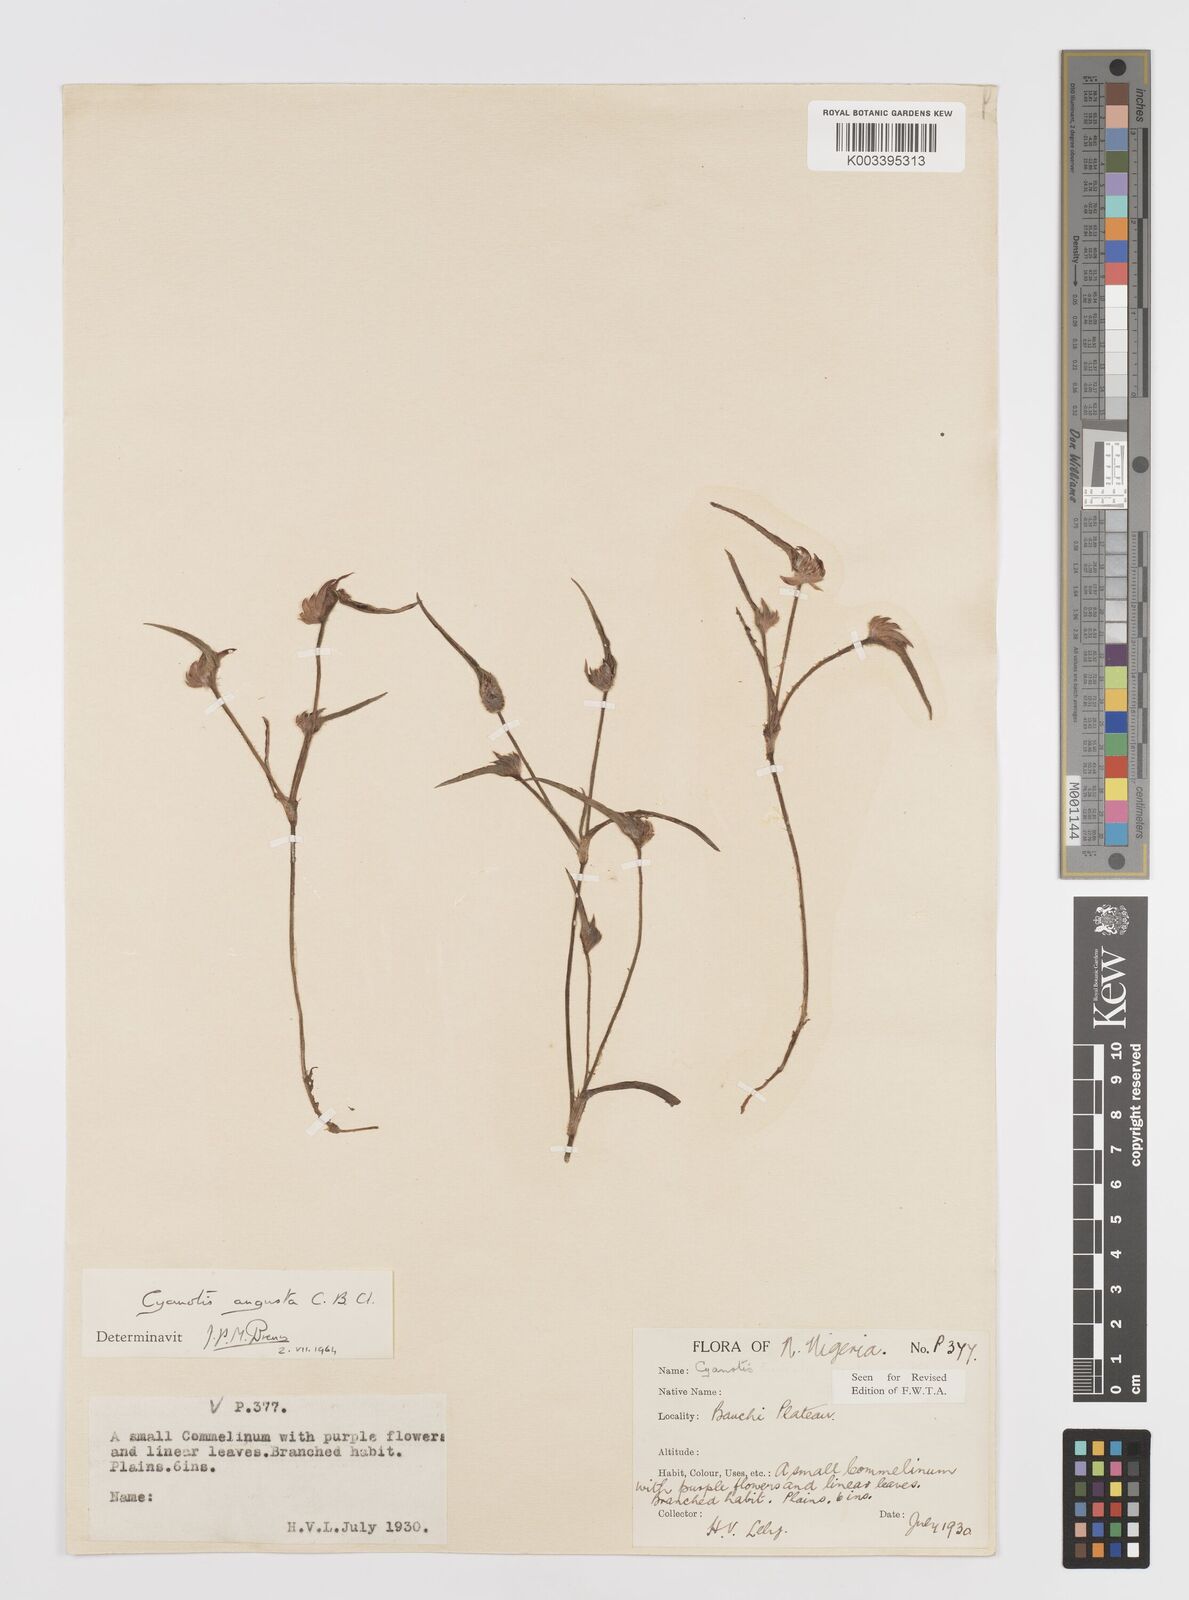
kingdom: Plantae
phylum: Tracheophyta
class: Liliopsida
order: Commelinales
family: Commelinaceae
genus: Cyanotis
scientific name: Cyanotis angusta
